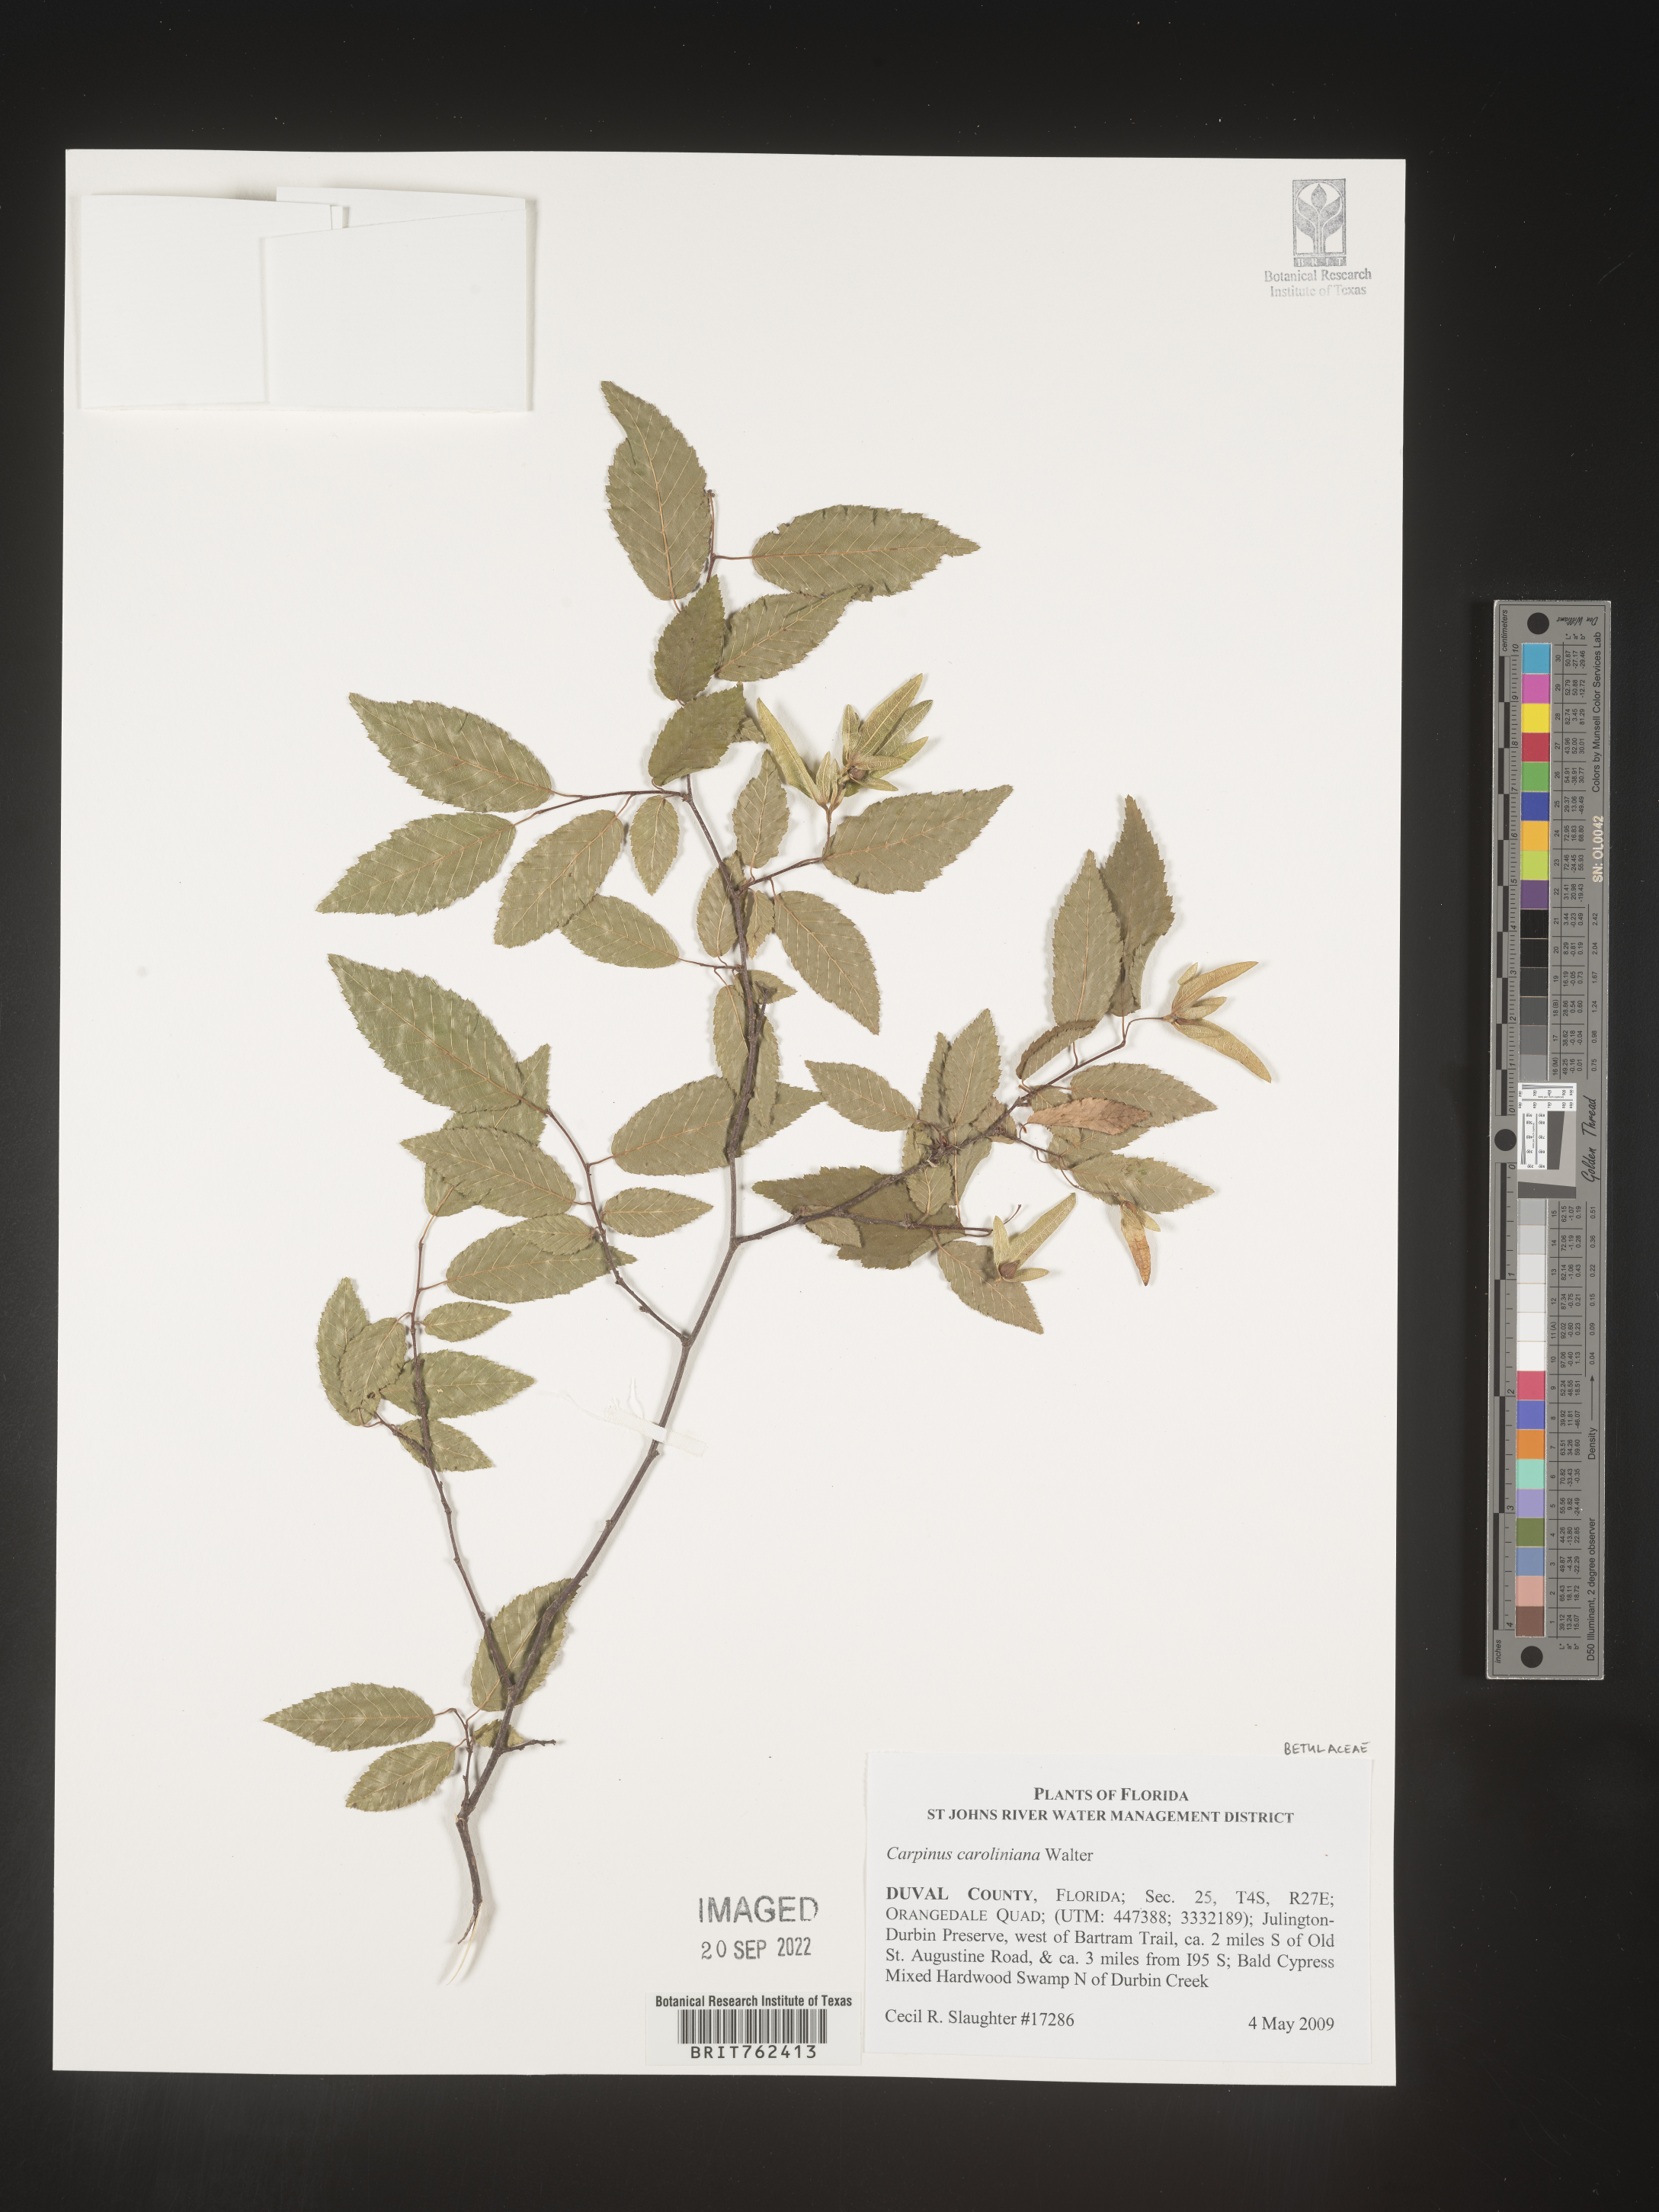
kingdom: Plantae
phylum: Tracheophyta
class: Magnoliopsida
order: Fagales
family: Betulaceae
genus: Carpinus
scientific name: Carpinus caroliniana
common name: American hornbeam
